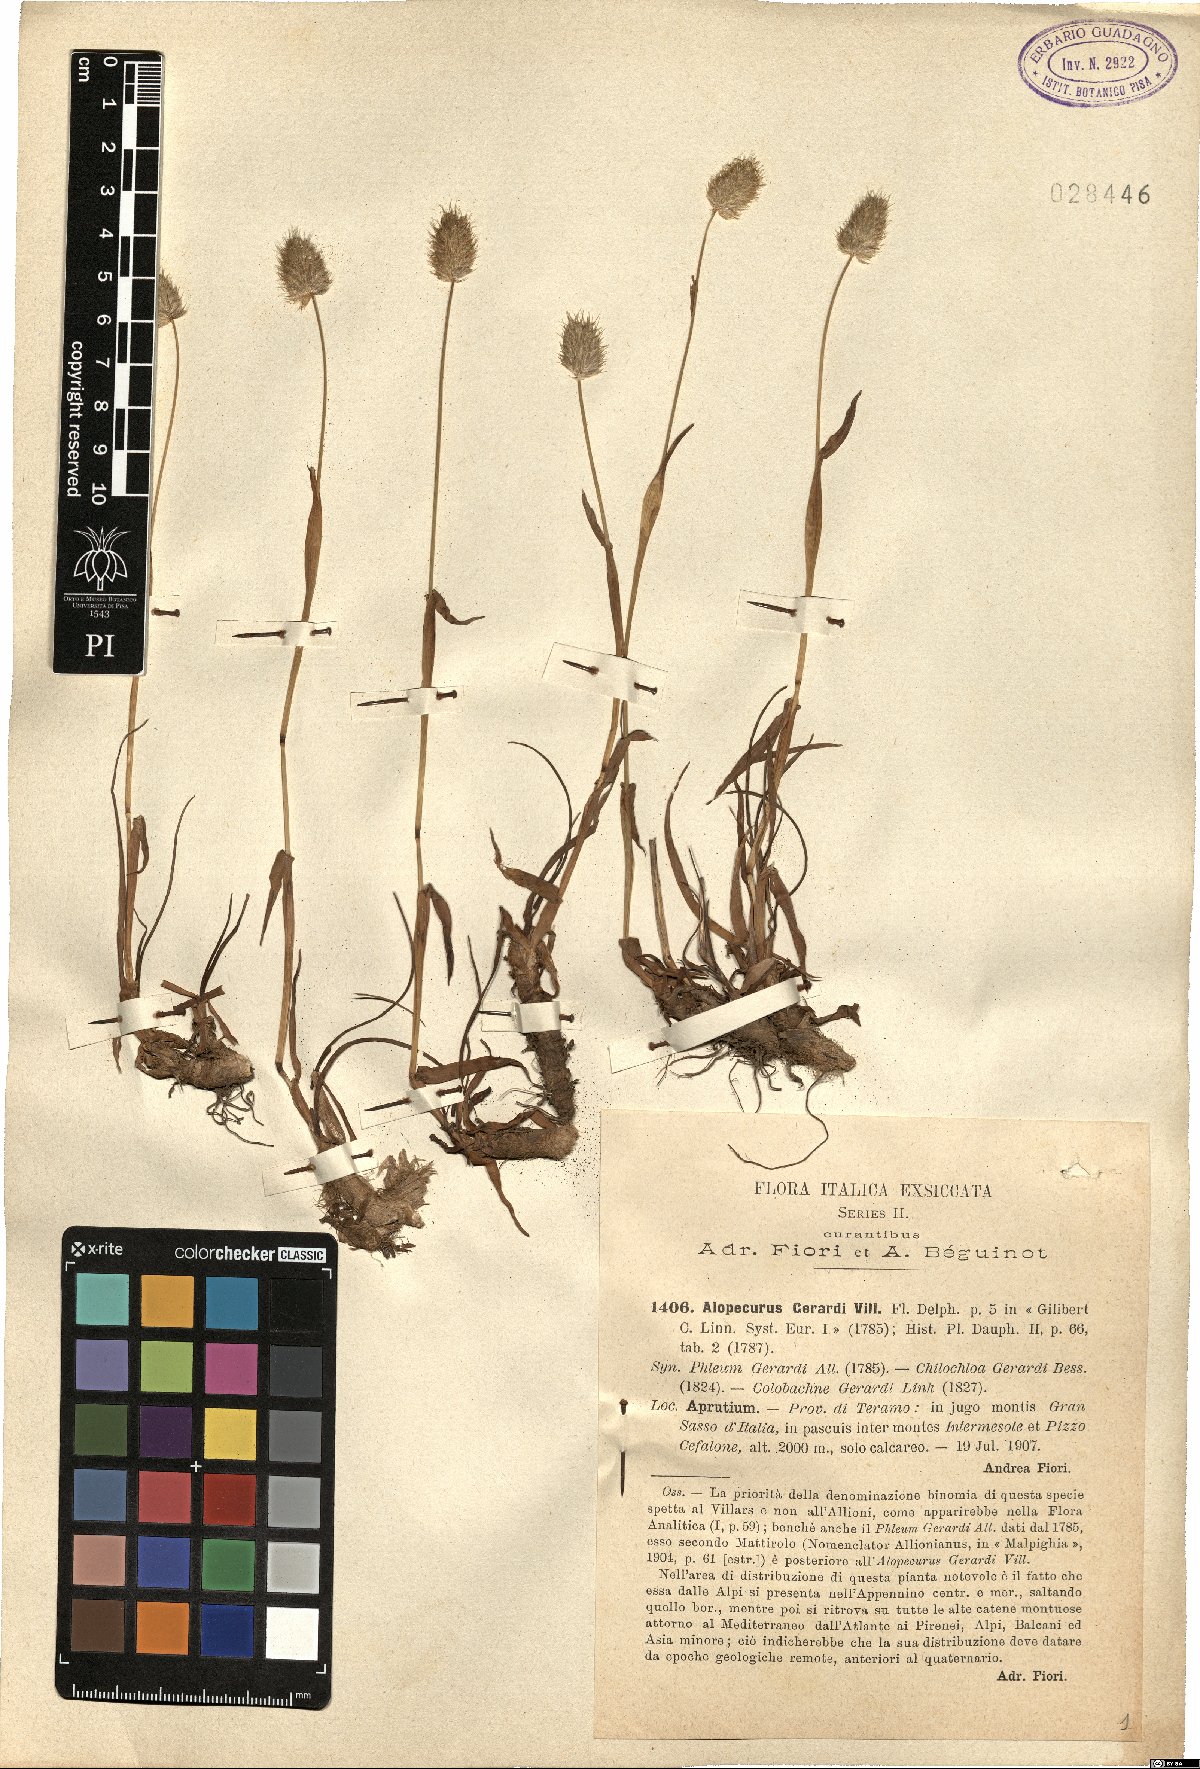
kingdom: Plantae
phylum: Tracheophyta
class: Liliopsida
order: Poales
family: Poaceae
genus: Alopecurus
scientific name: Alopecurus gerardii
